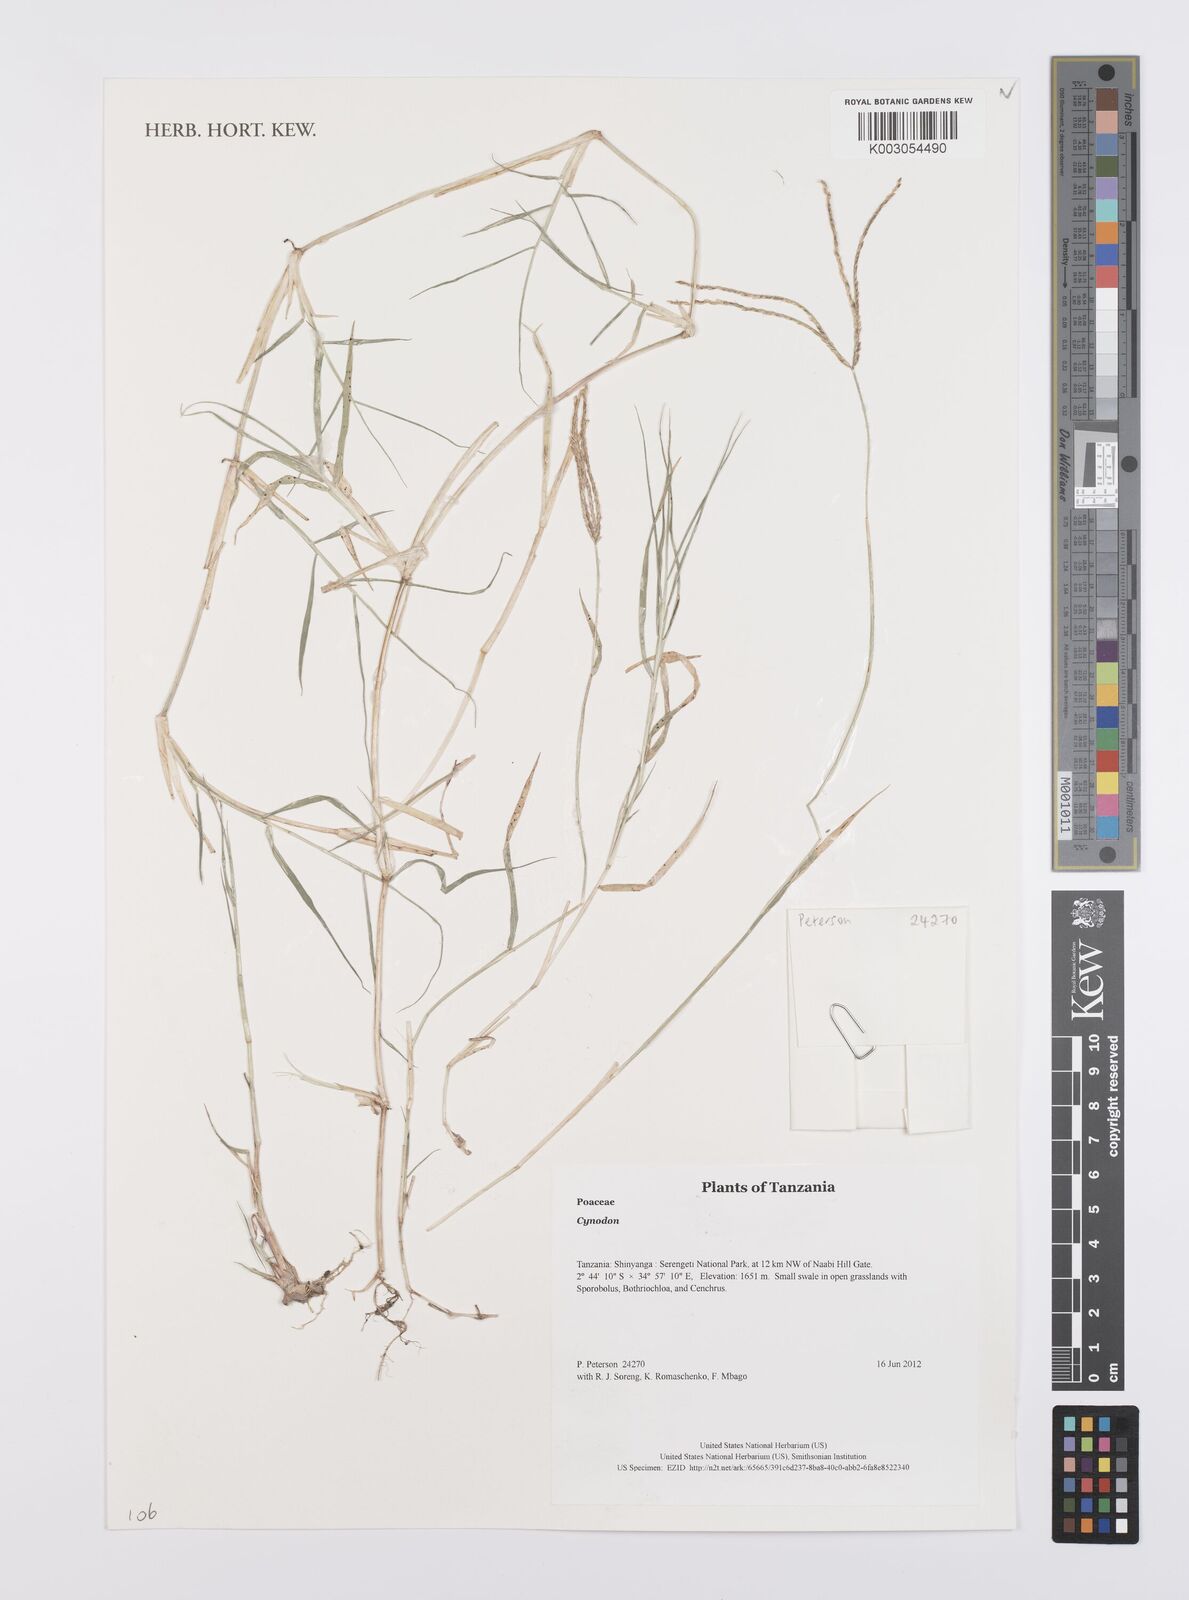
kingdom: Plantae
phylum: Tracheophyta
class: Liliopsida
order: Poales
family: Poaceae
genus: Cynodon
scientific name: Cynodon
